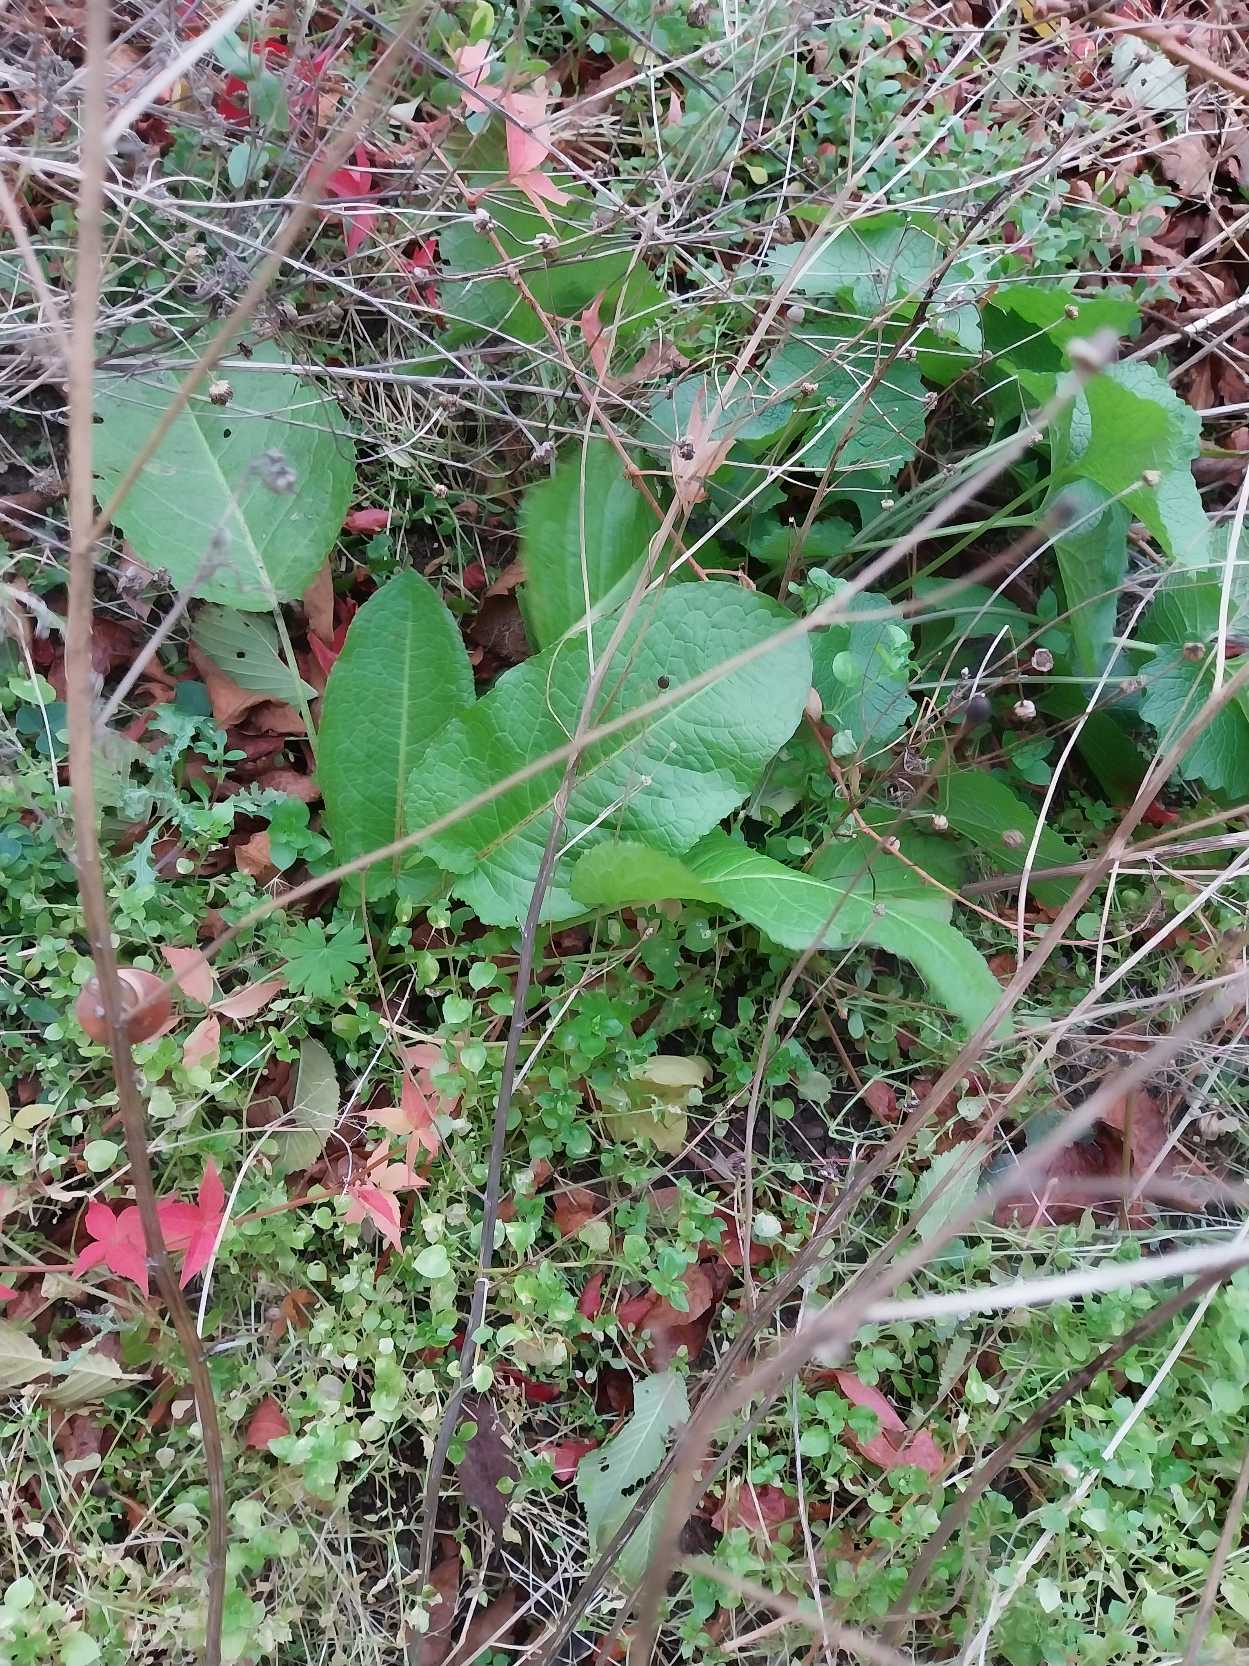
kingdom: Plantae
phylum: Tracheophyta
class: Magnoliopsida
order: Caryophyllales
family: Polygonaceae
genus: Rumex
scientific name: Rumex obtusifolius
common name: Butbladet skræppe
